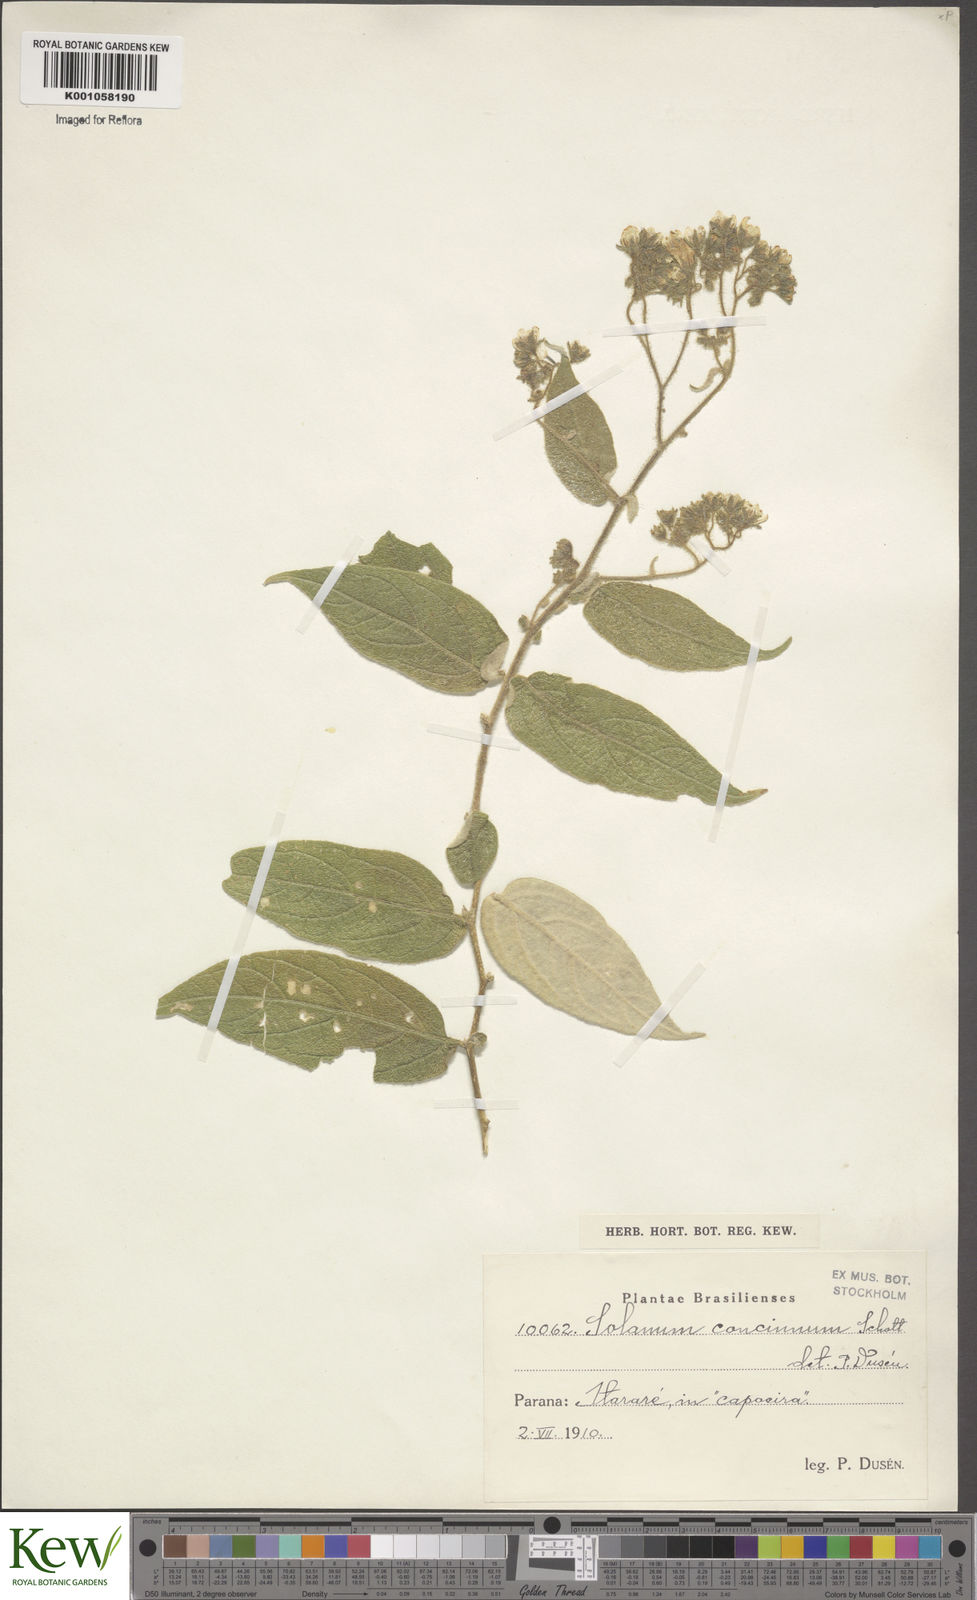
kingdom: Plantae
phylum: Tracheophyta
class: Magnoliopsida
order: Solanales
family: Solanaceae
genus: Solanum
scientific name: Solanum concinnum
